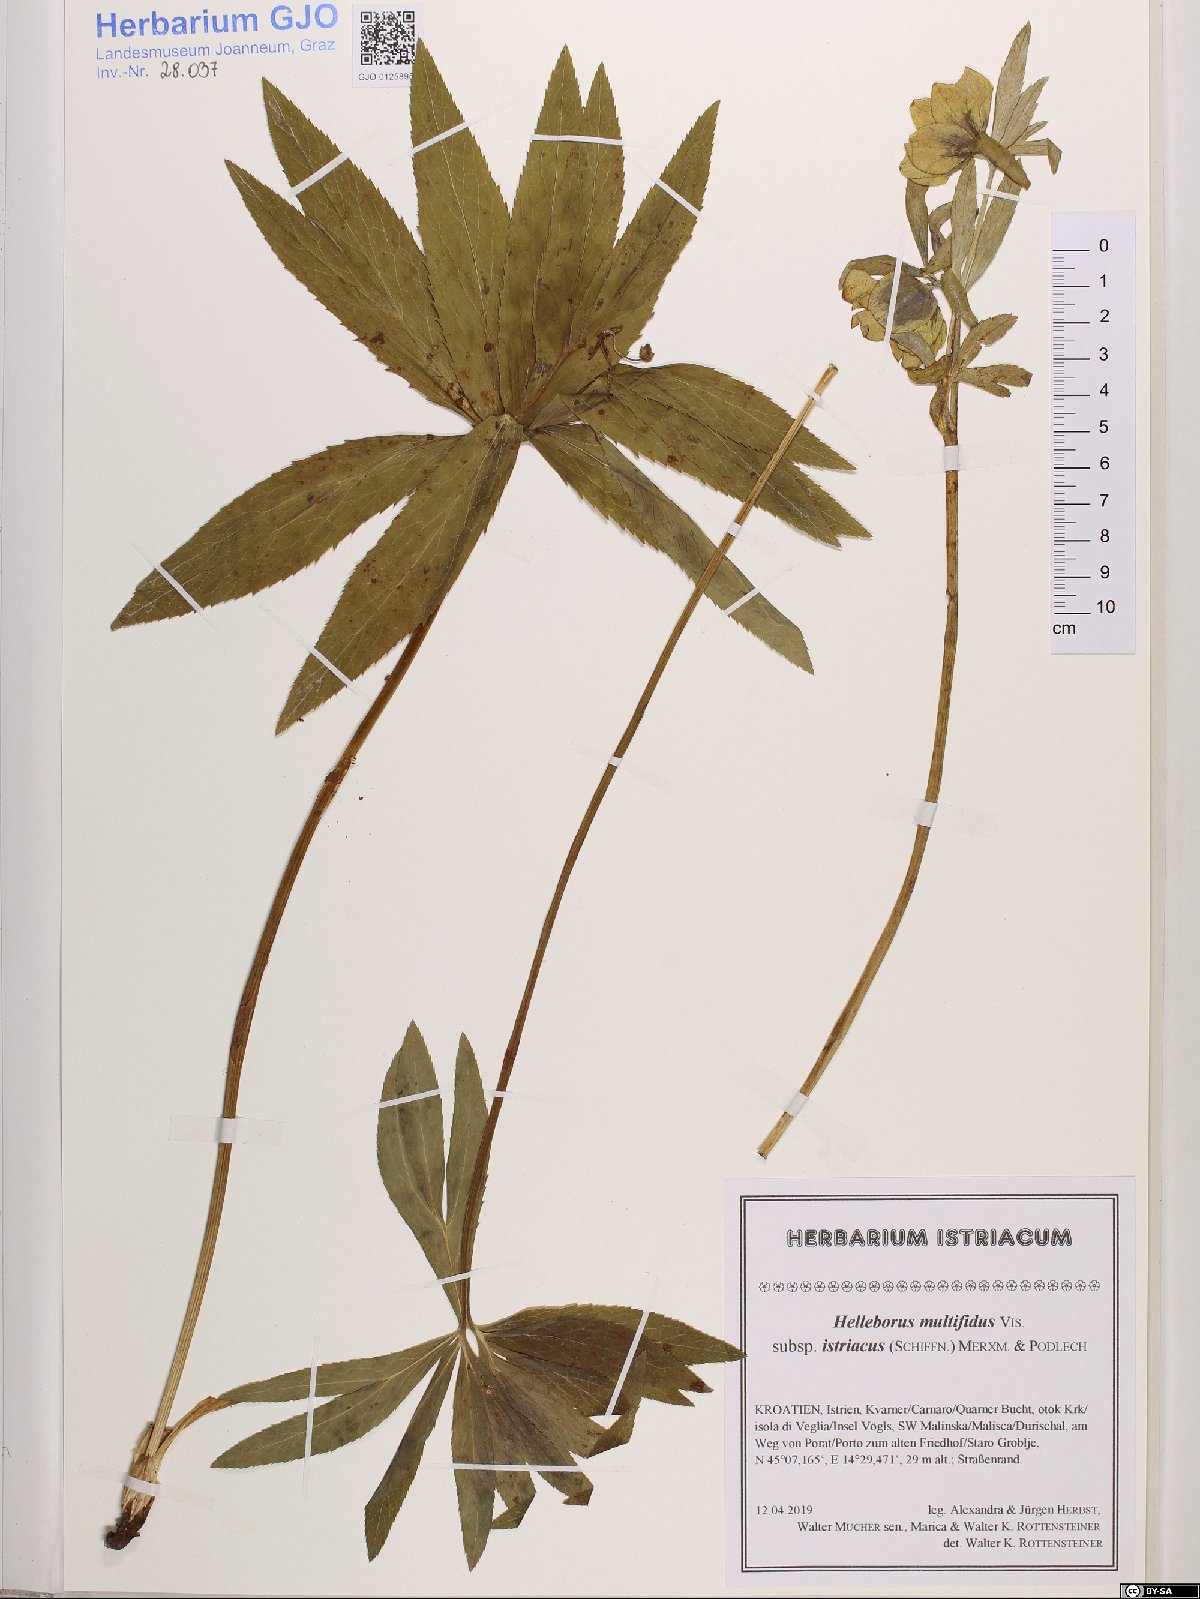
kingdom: Plantae
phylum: Tracheophyta
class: Magnoliopsida
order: Ranunculales
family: Ranunculaceae
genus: Helleborus
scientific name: Helleborus bocconei
